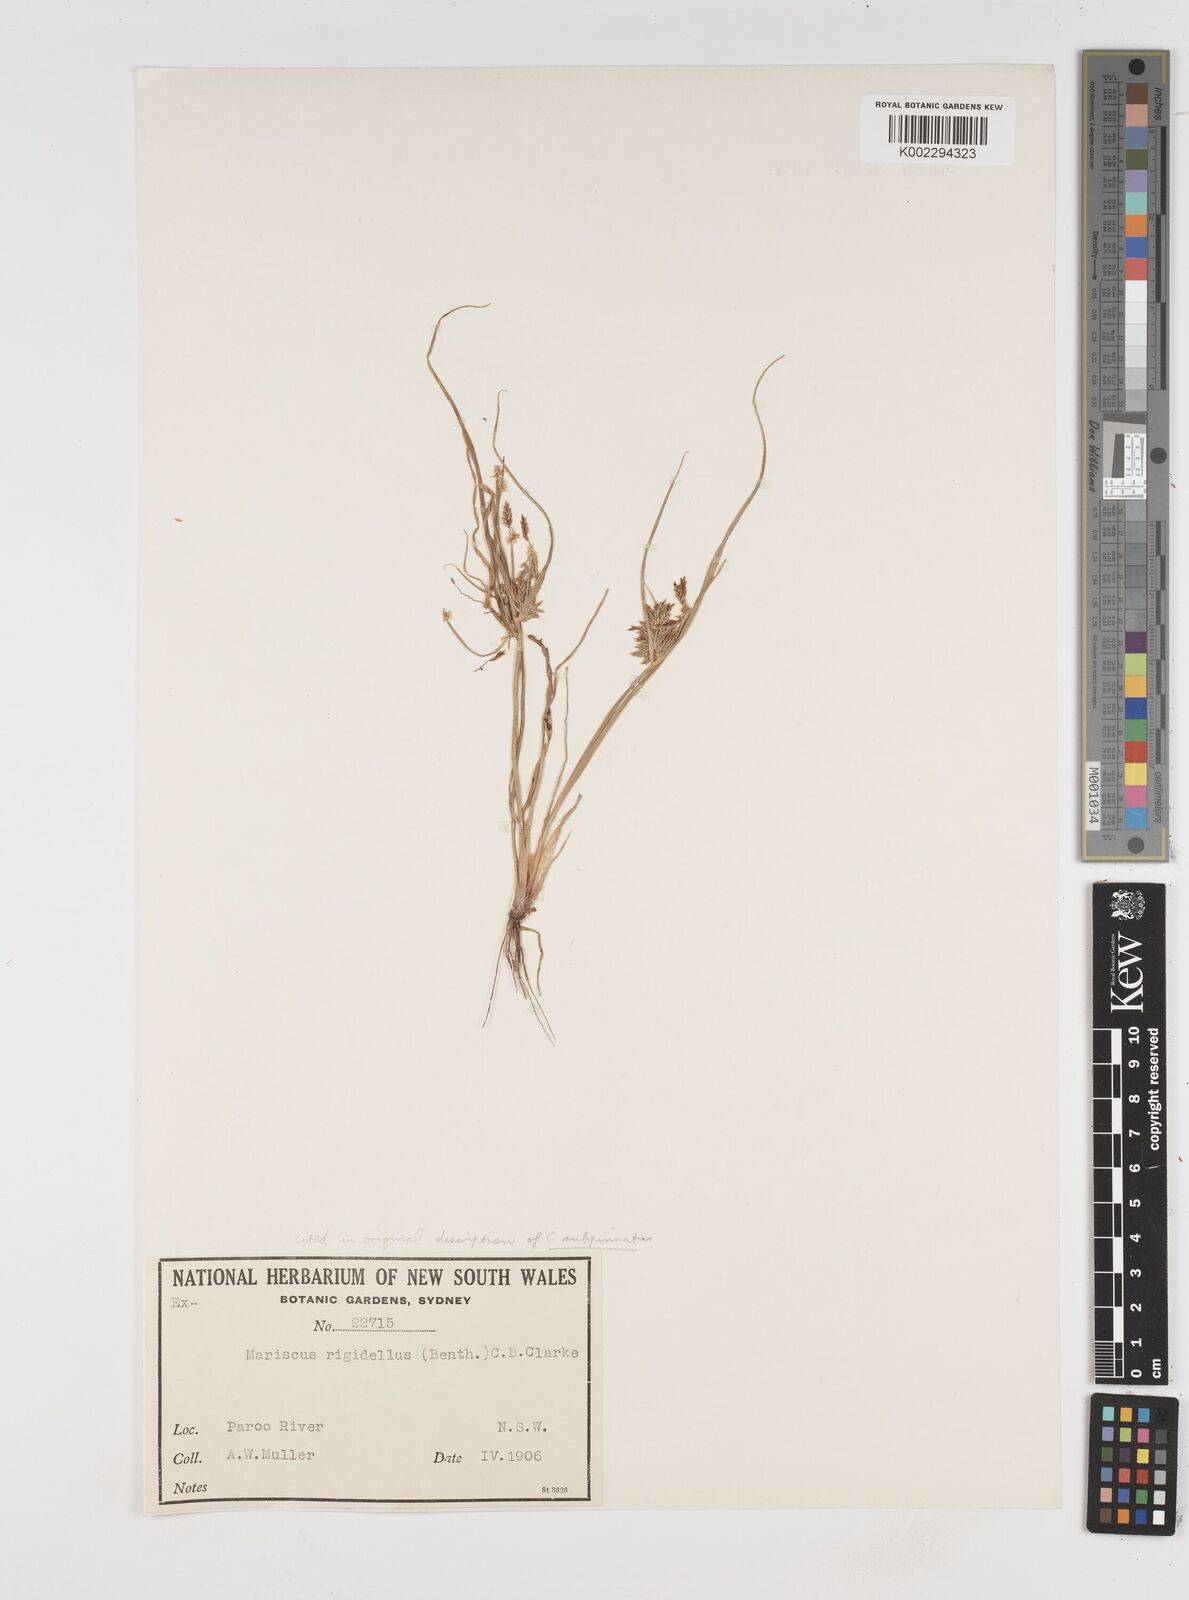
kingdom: Plantae
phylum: Tracheophyta
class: Liliopsida
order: Poales
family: Cyperaceae
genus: Cyperus
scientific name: Cyperus rigidellus
